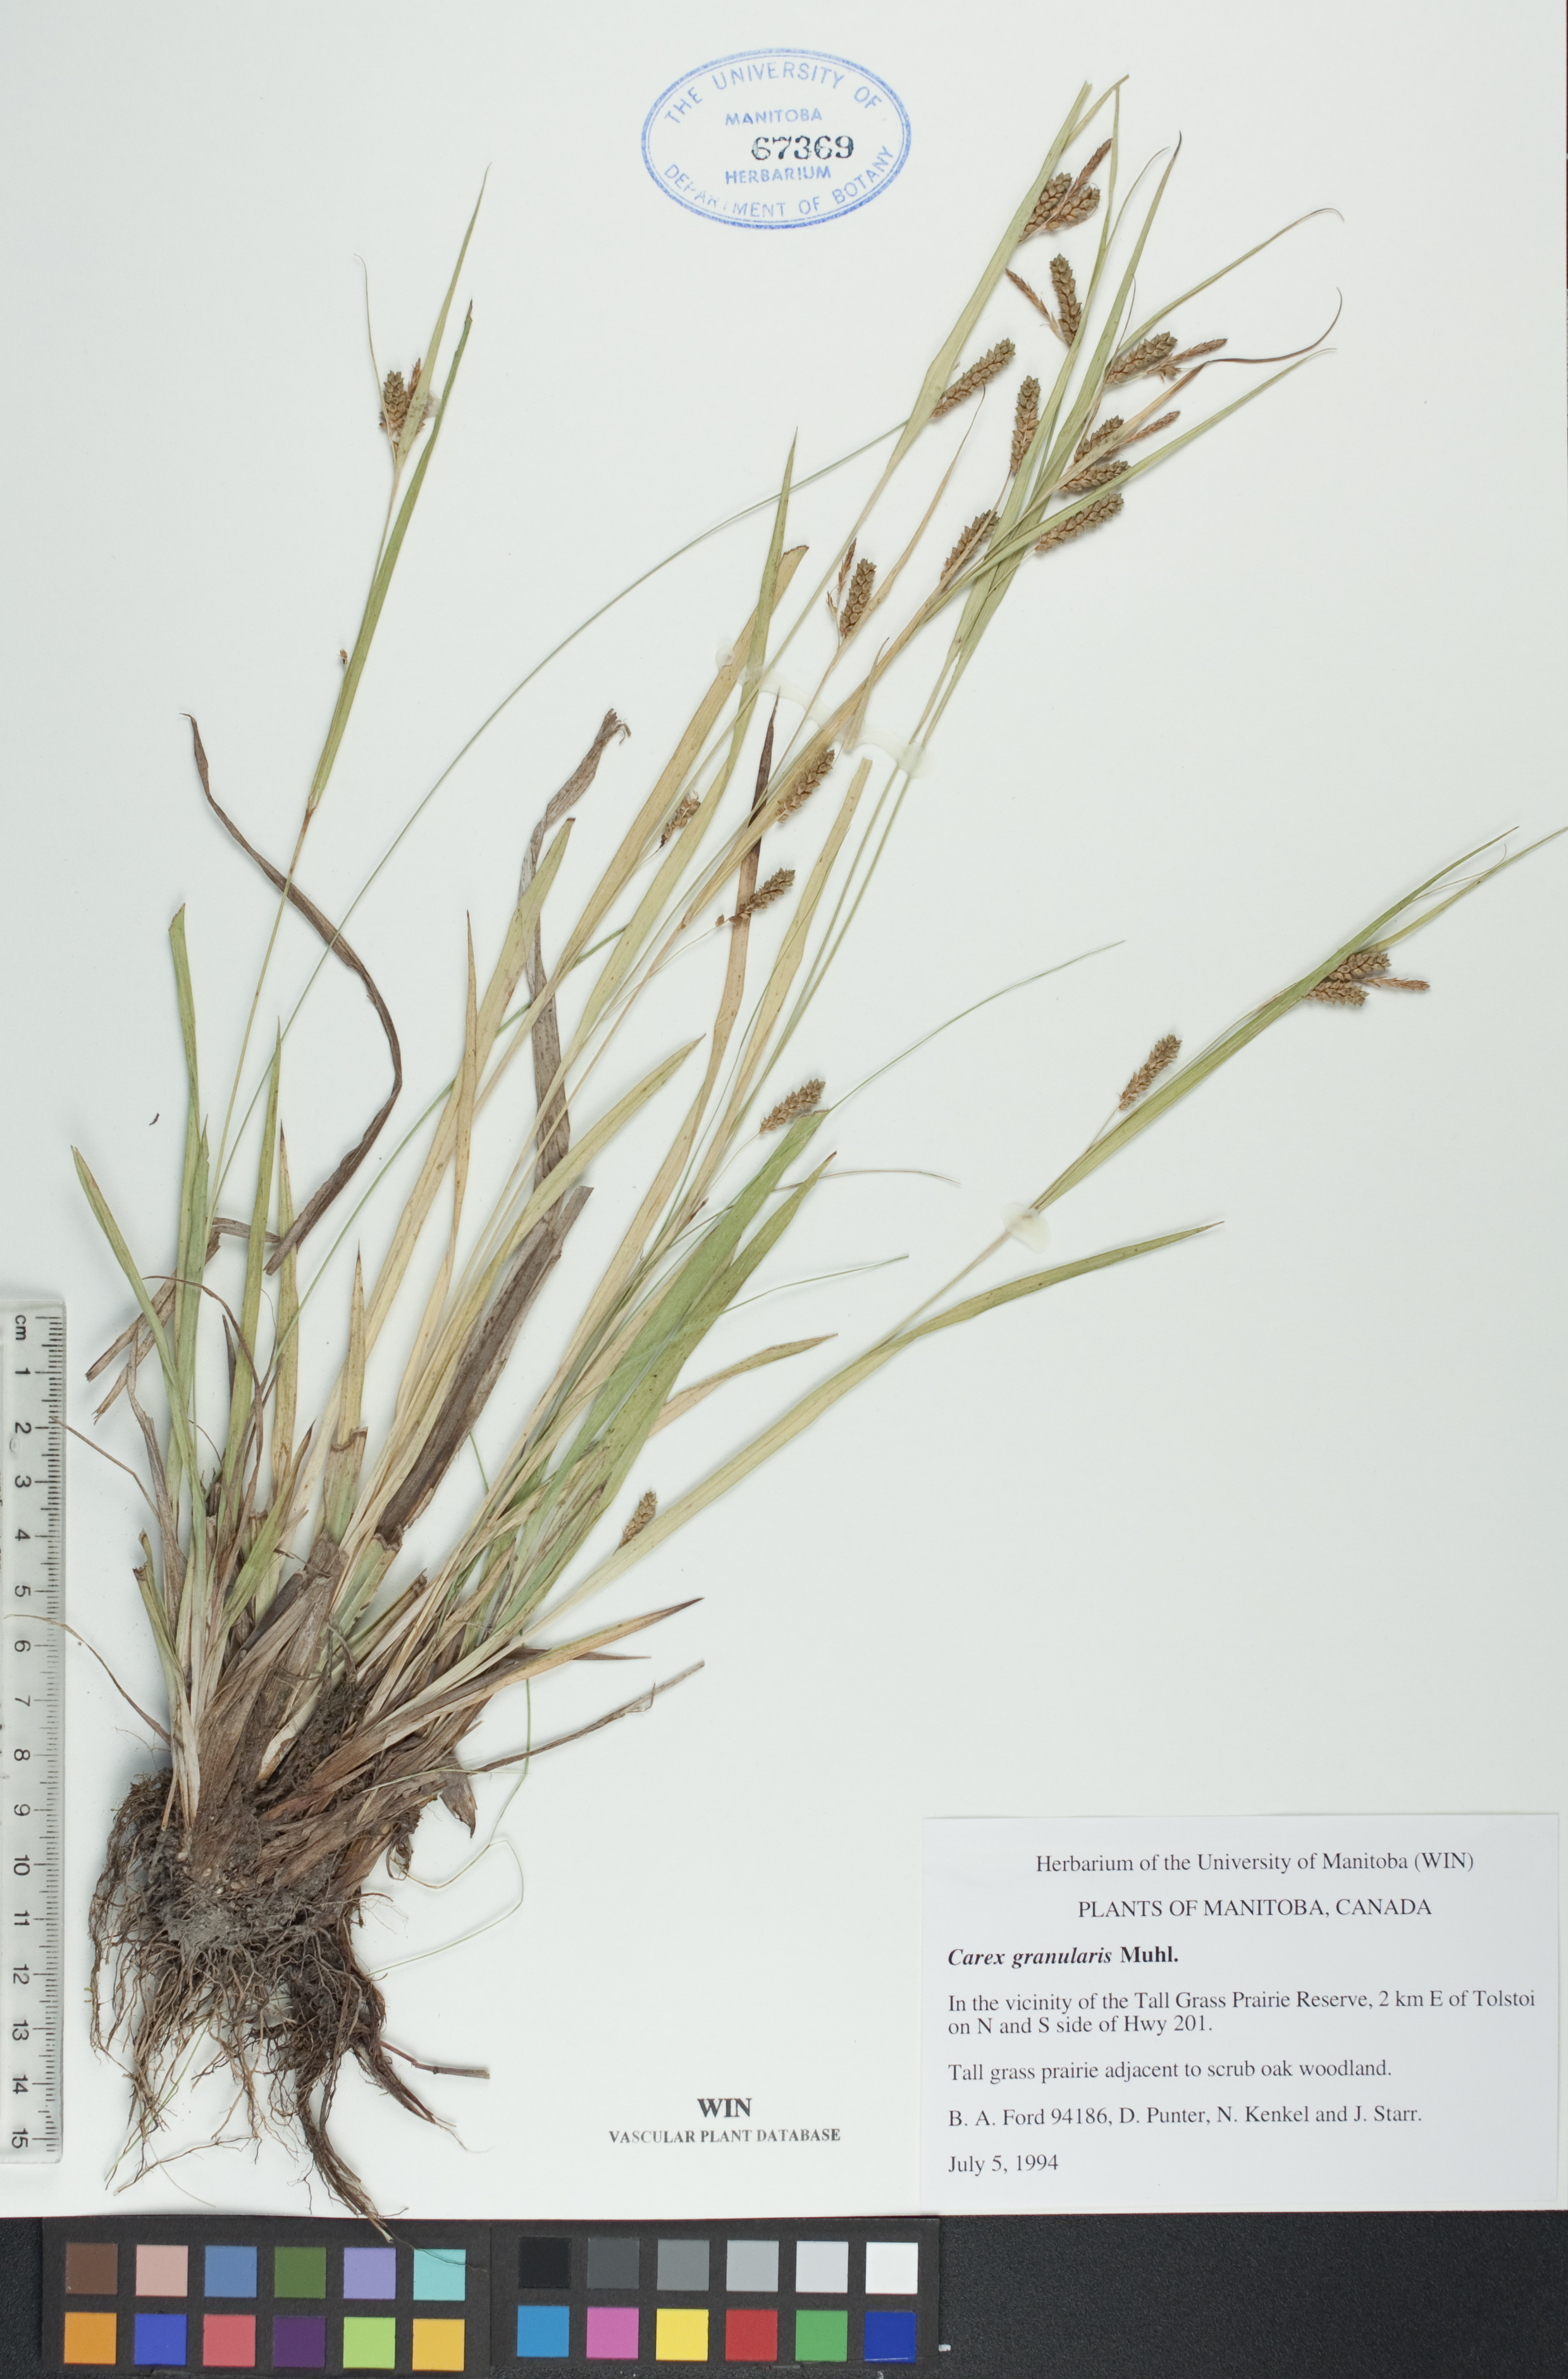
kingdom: Plantae
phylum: Tracheophyta
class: Liliopsida
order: Poales
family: Cyperaceae
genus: Carex
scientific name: Carex granularis
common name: Granular sedge
